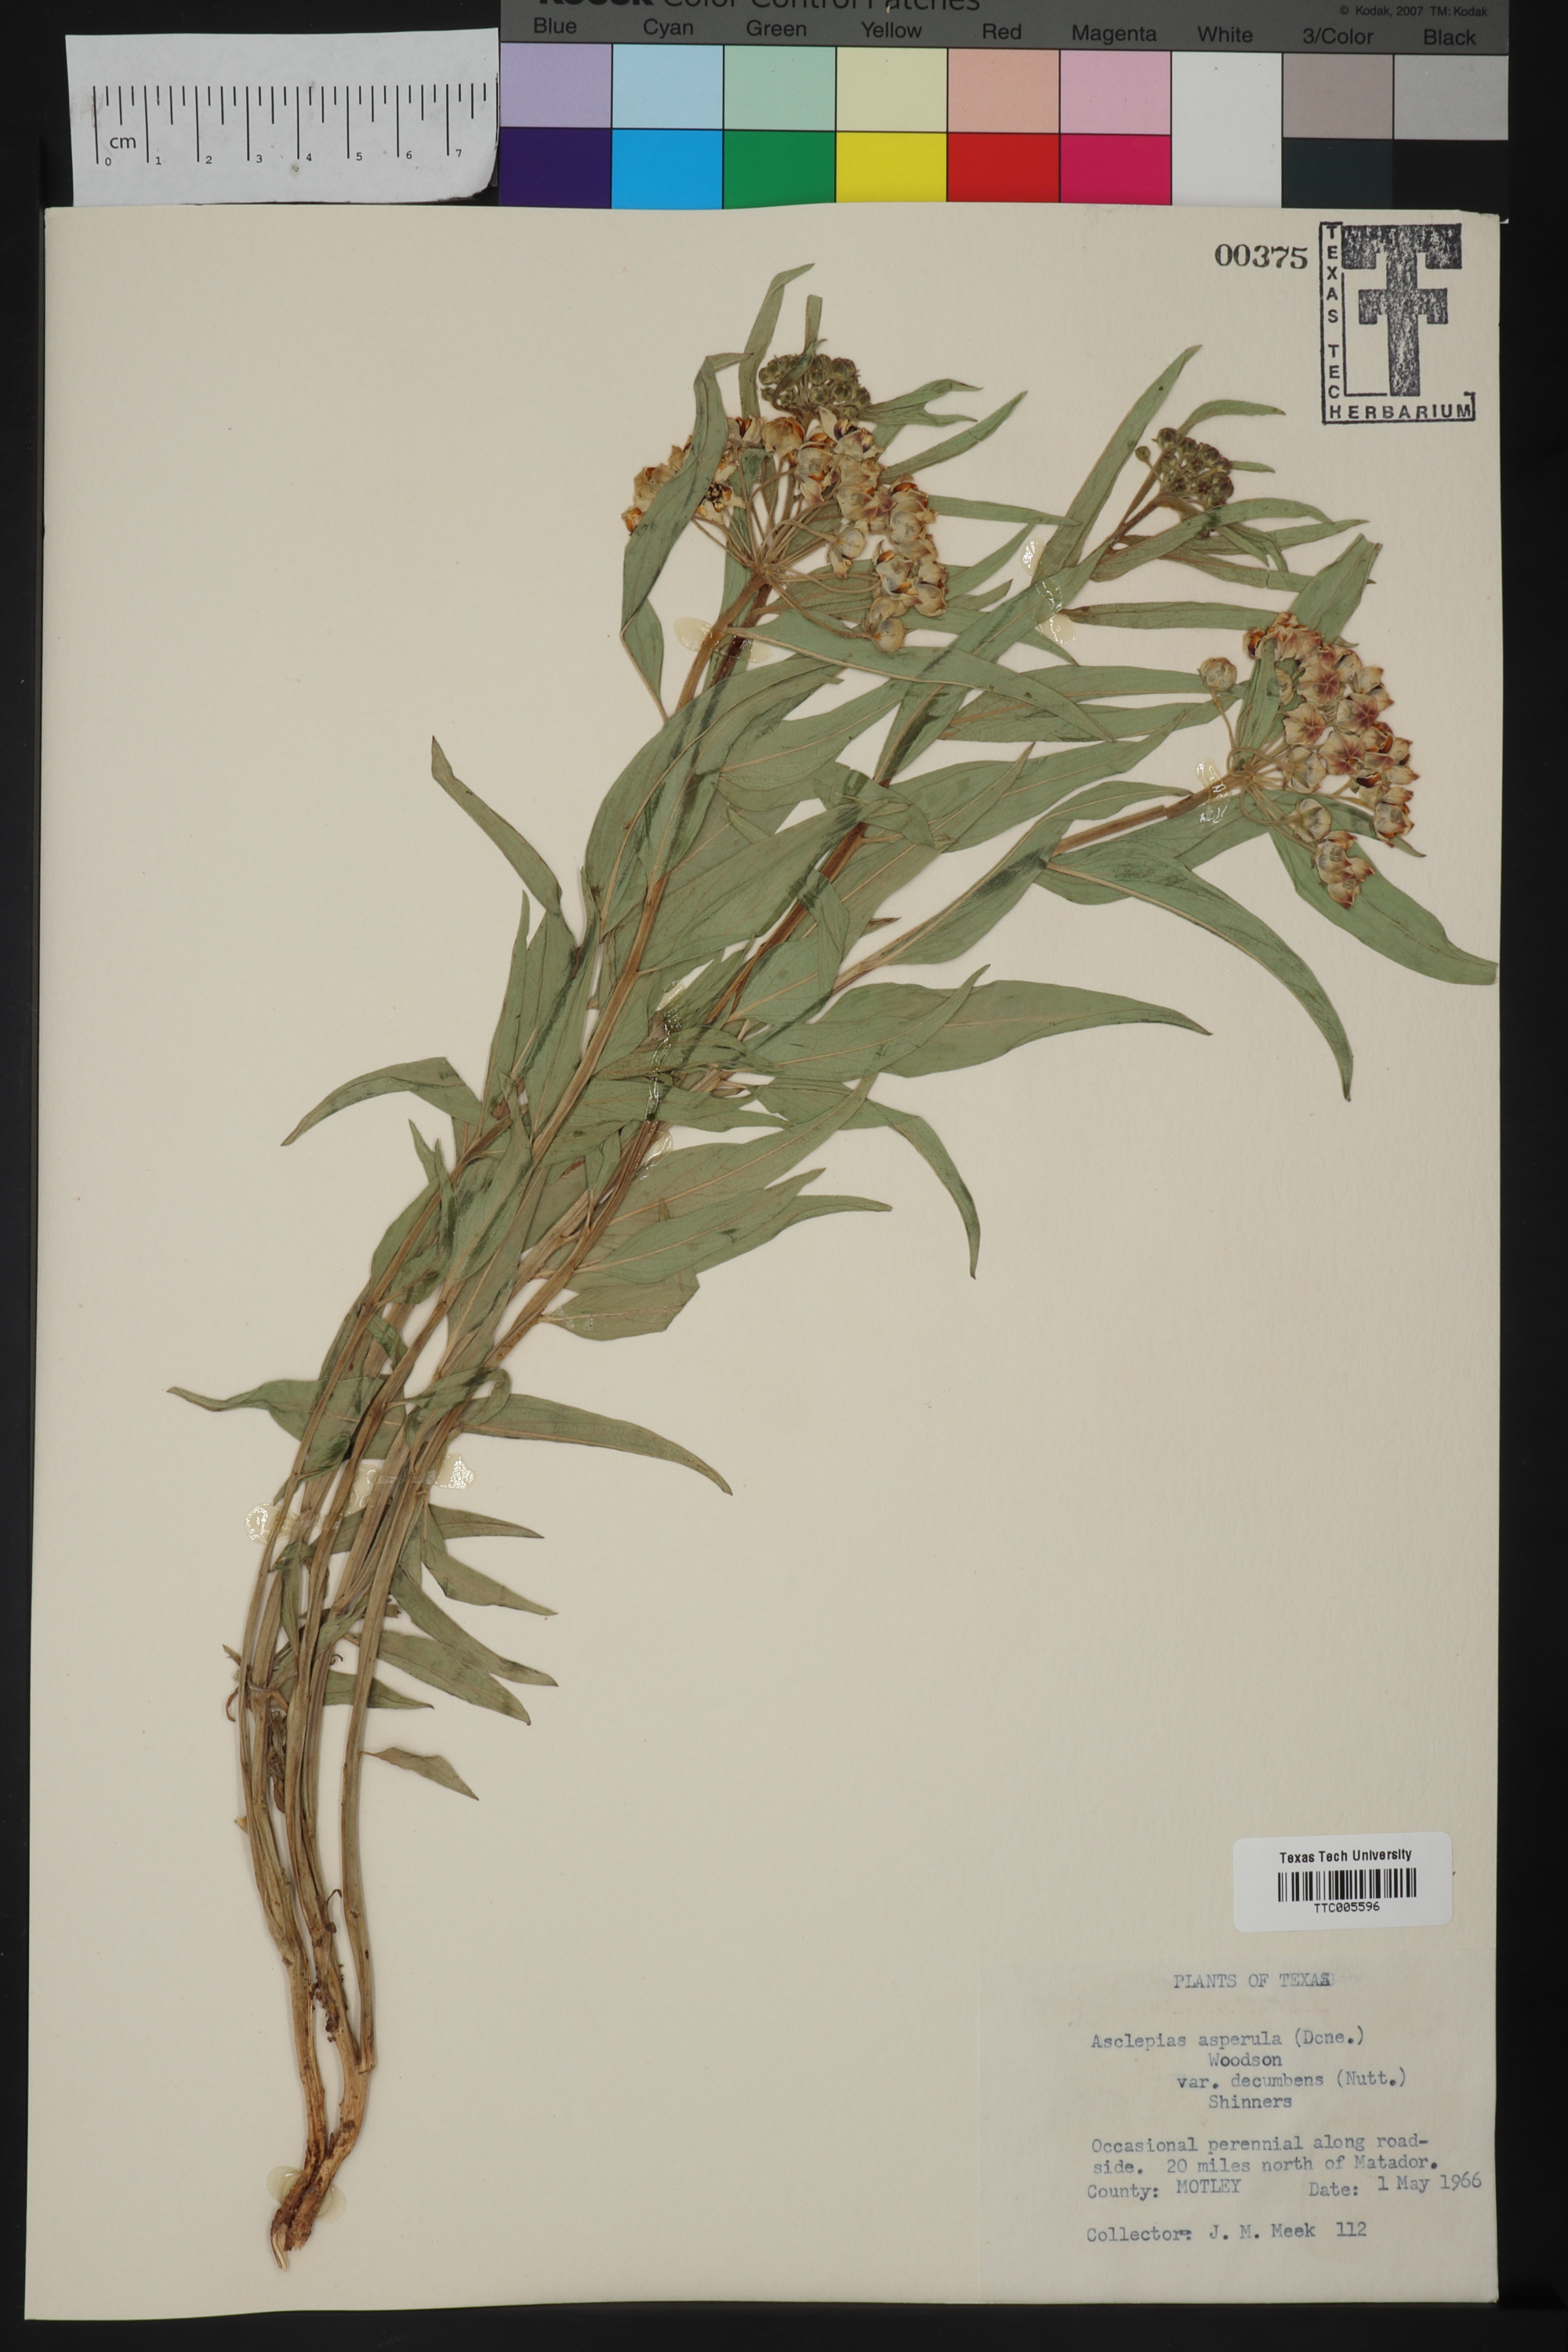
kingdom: Plantae
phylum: Tracheophyta
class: Magnoliopsida
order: Gentianales
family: Apocynaceae
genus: Asclepias
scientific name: Asclepias asperula
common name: Antelope horns
